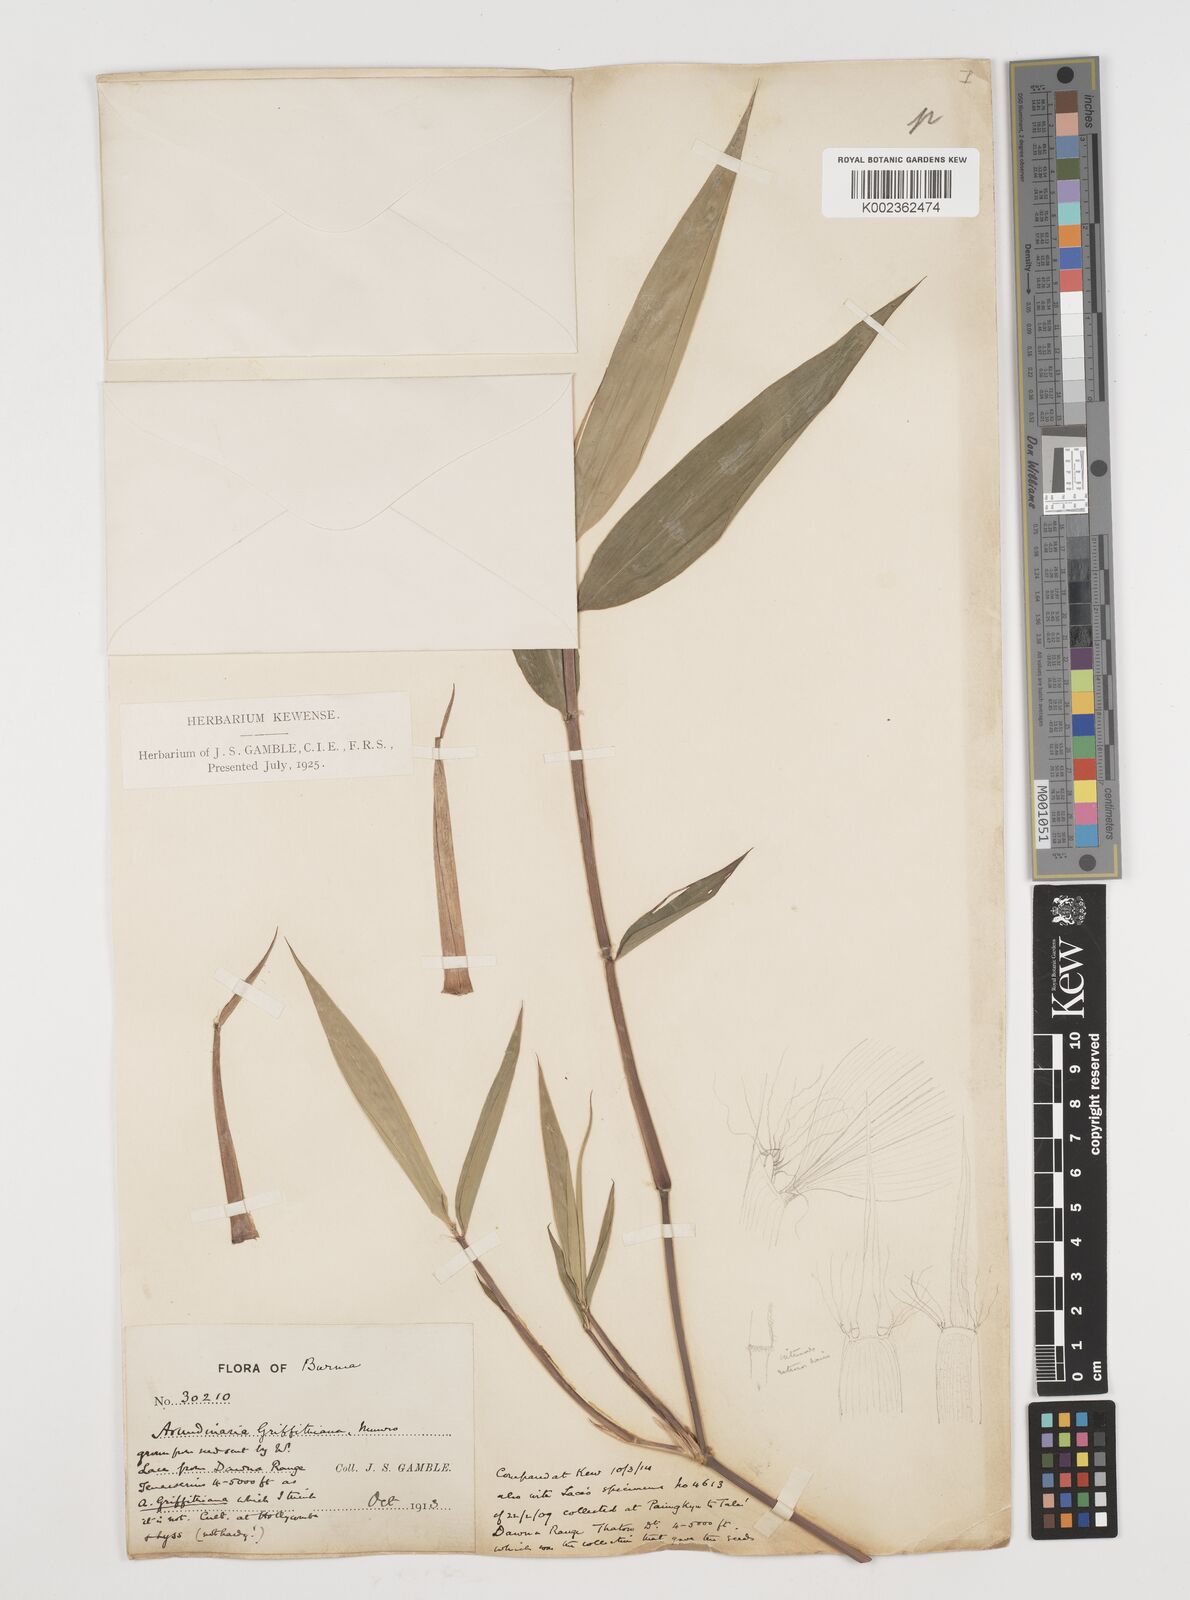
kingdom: Plantae
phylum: Tracheophyta
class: Liliopsida
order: Poales
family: Poaceae
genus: Chimonocalamus
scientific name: Chimonocalamus griffithianus
